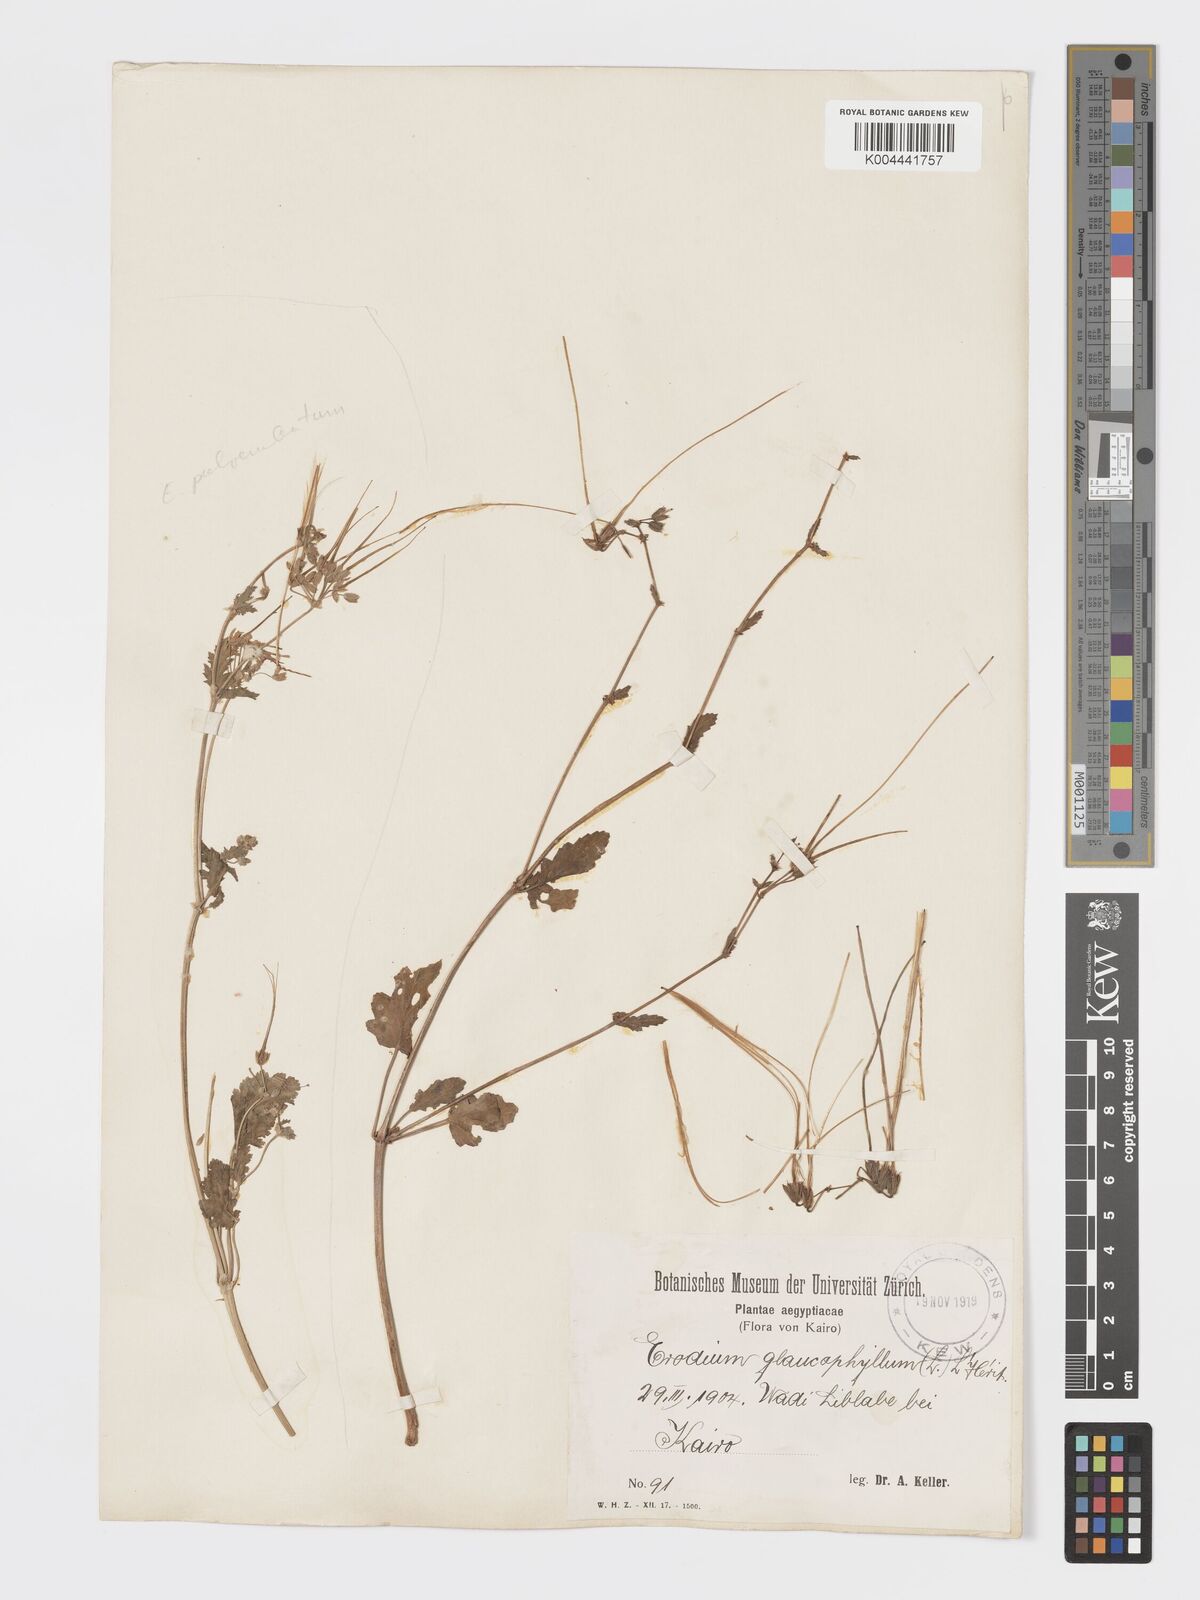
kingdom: Plantae
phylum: Tracheophyta
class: Magnoliopsida
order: Geraniales
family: Geraniaceae
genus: Erodium
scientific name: Erodium glaucophyllum
